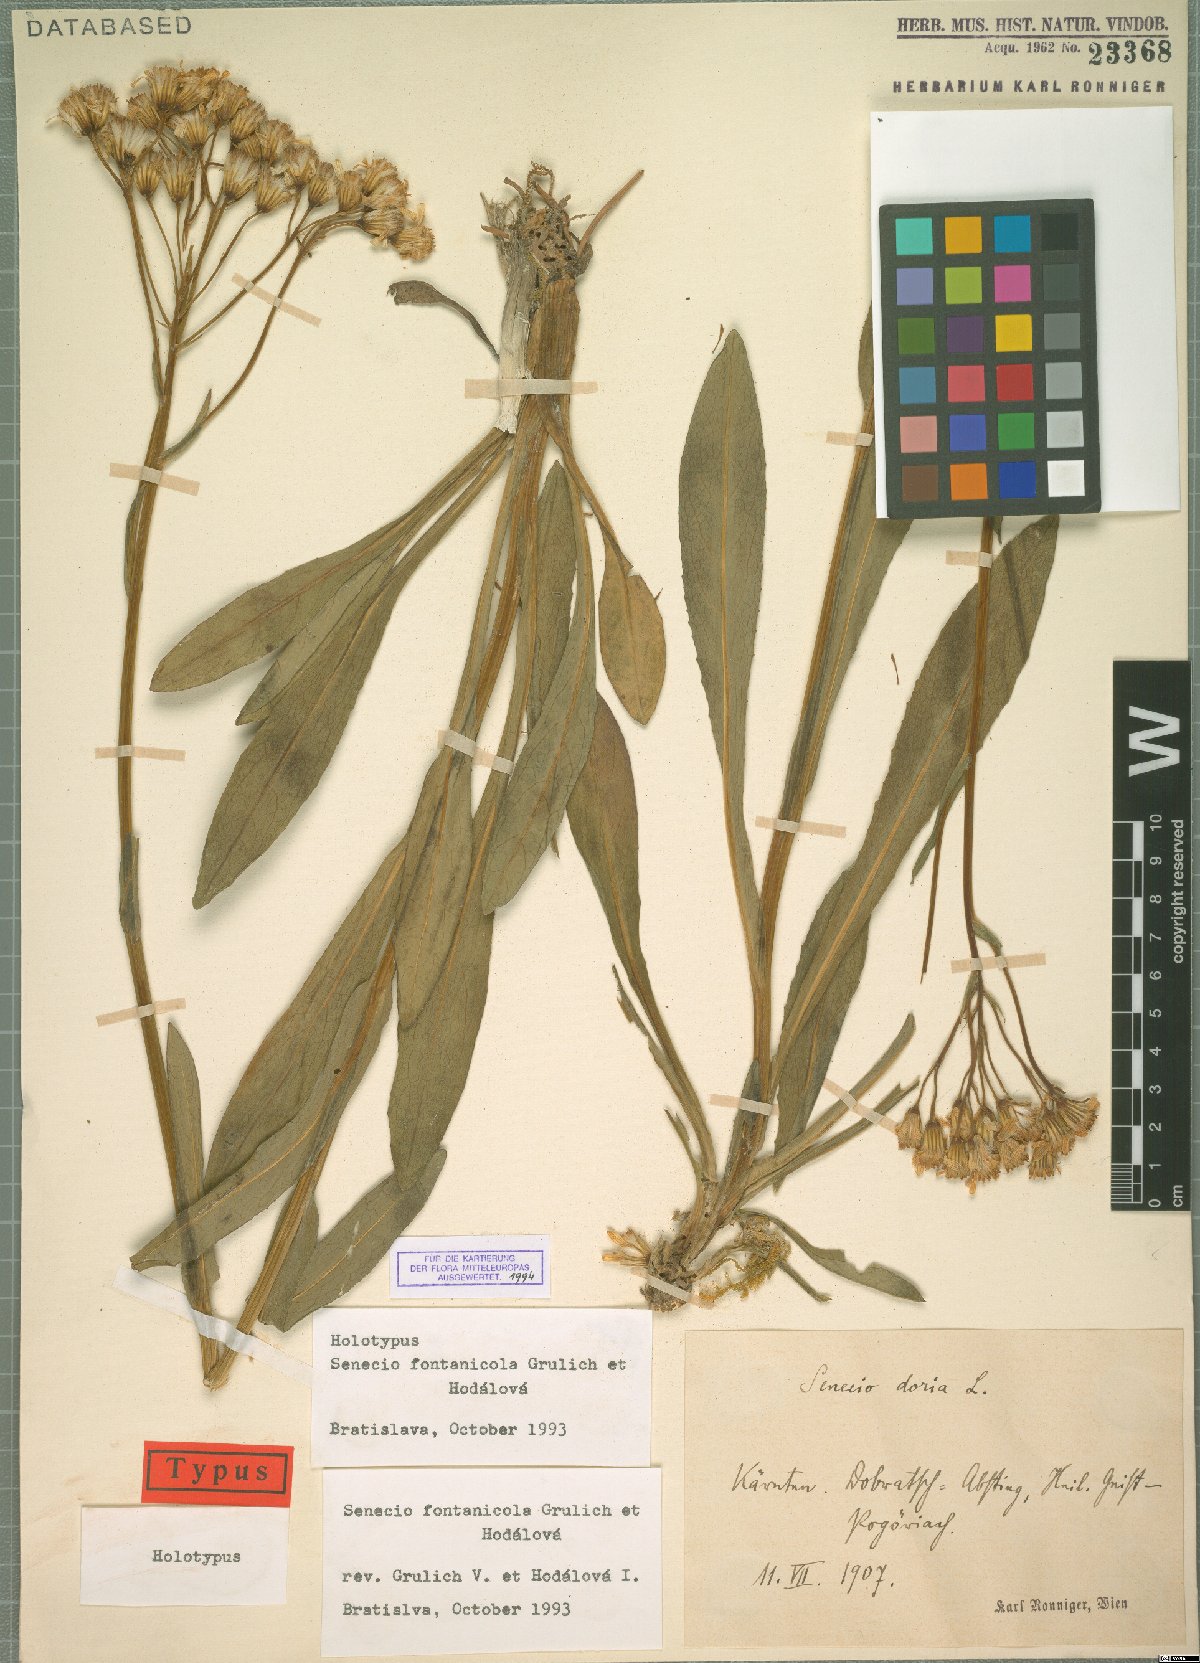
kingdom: Plantae
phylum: Tracheophyta
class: Magnoliopsida
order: Asterales
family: Asteraceae
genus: Senecio
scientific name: Senecio fontanicola
